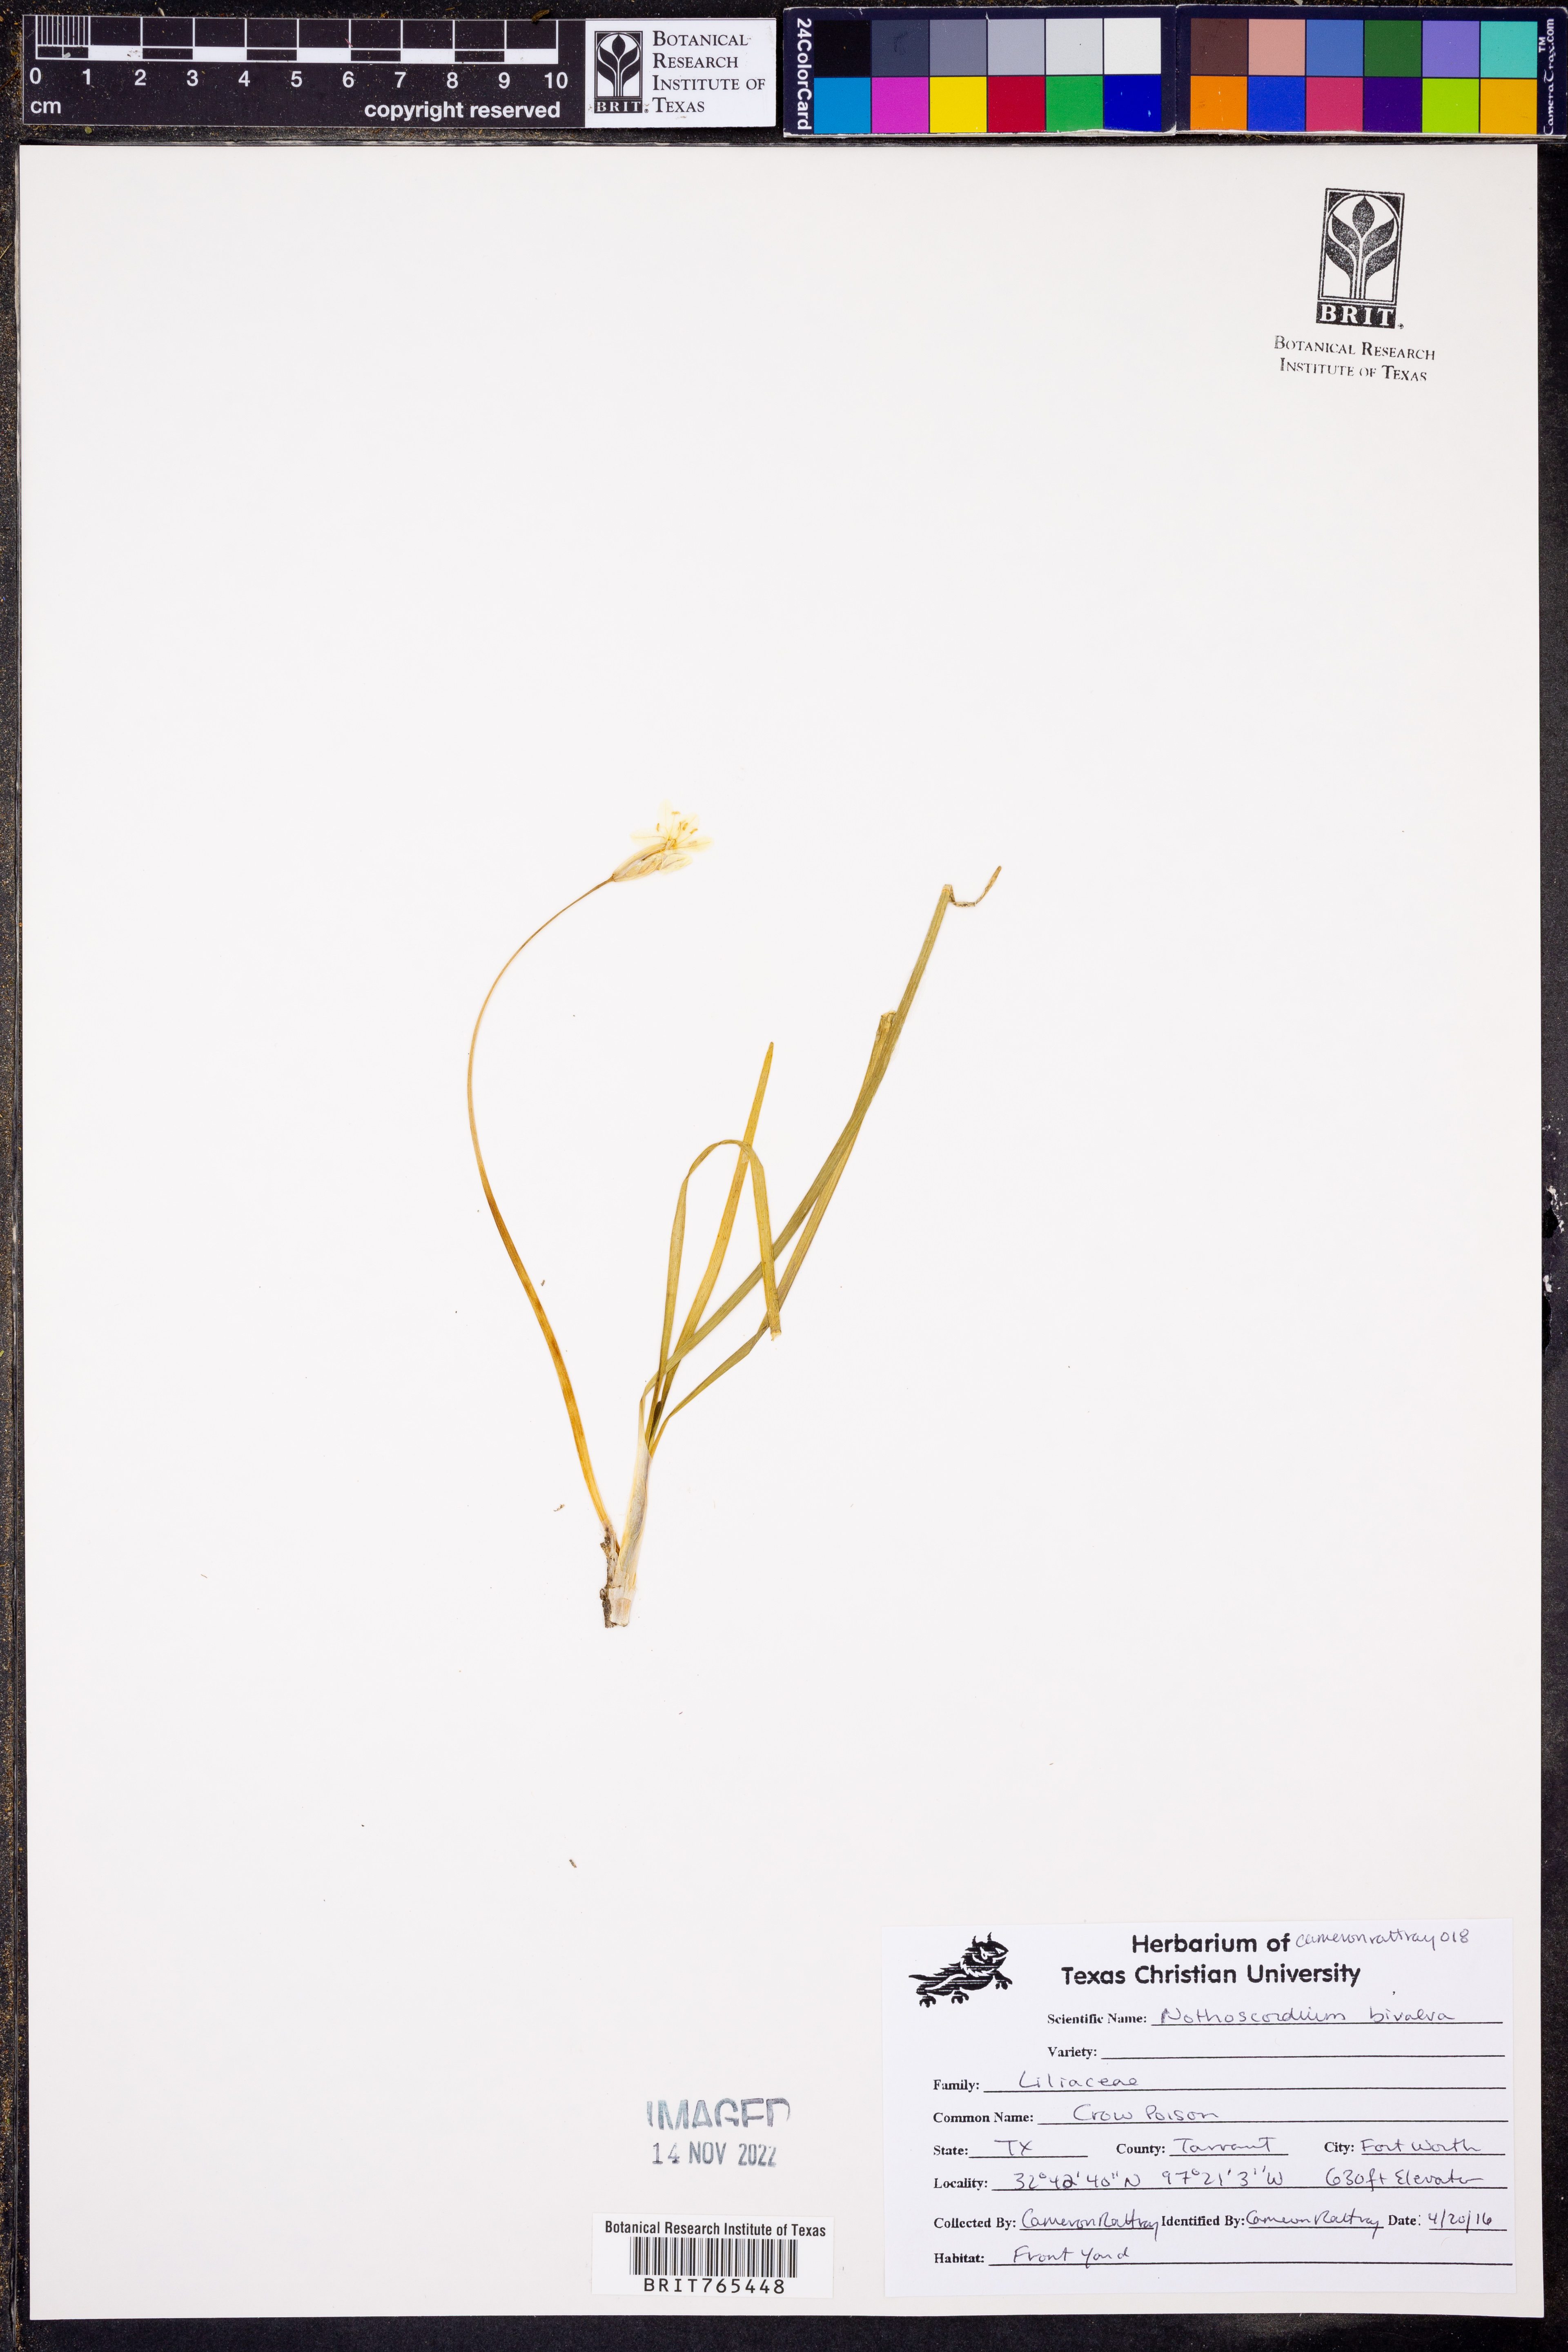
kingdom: Plantae
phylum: Tracheophyta
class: Liliopsida
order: Asparagales
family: Amaryllidaceae
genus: Nothoscordum
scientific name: Nothoscordum bivalve
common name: Crow-poison
